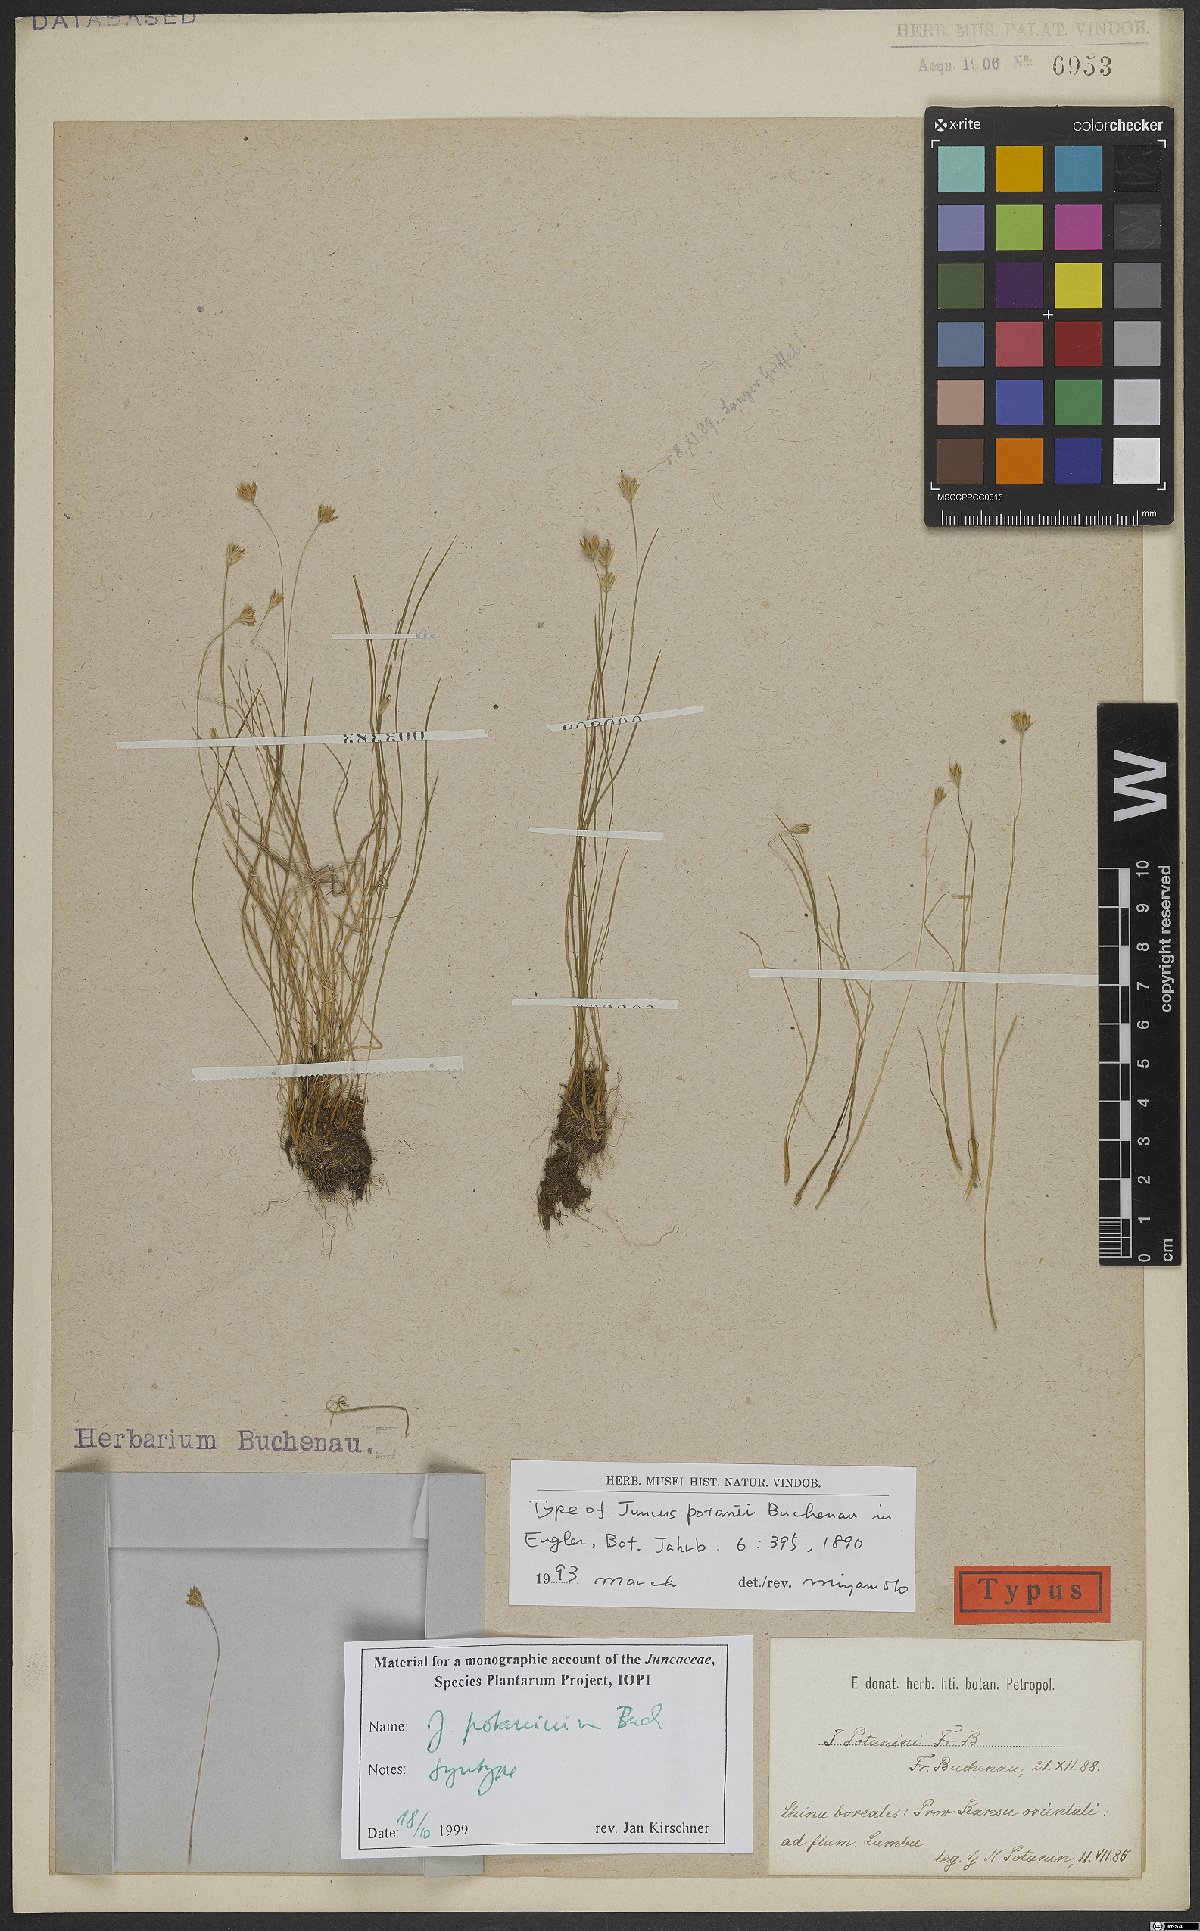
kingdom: Plantae
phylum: Tracheophyta
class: Liliopsida
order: Poales
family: Juncaceae
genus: Juncus
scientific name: Juncus potaninii
